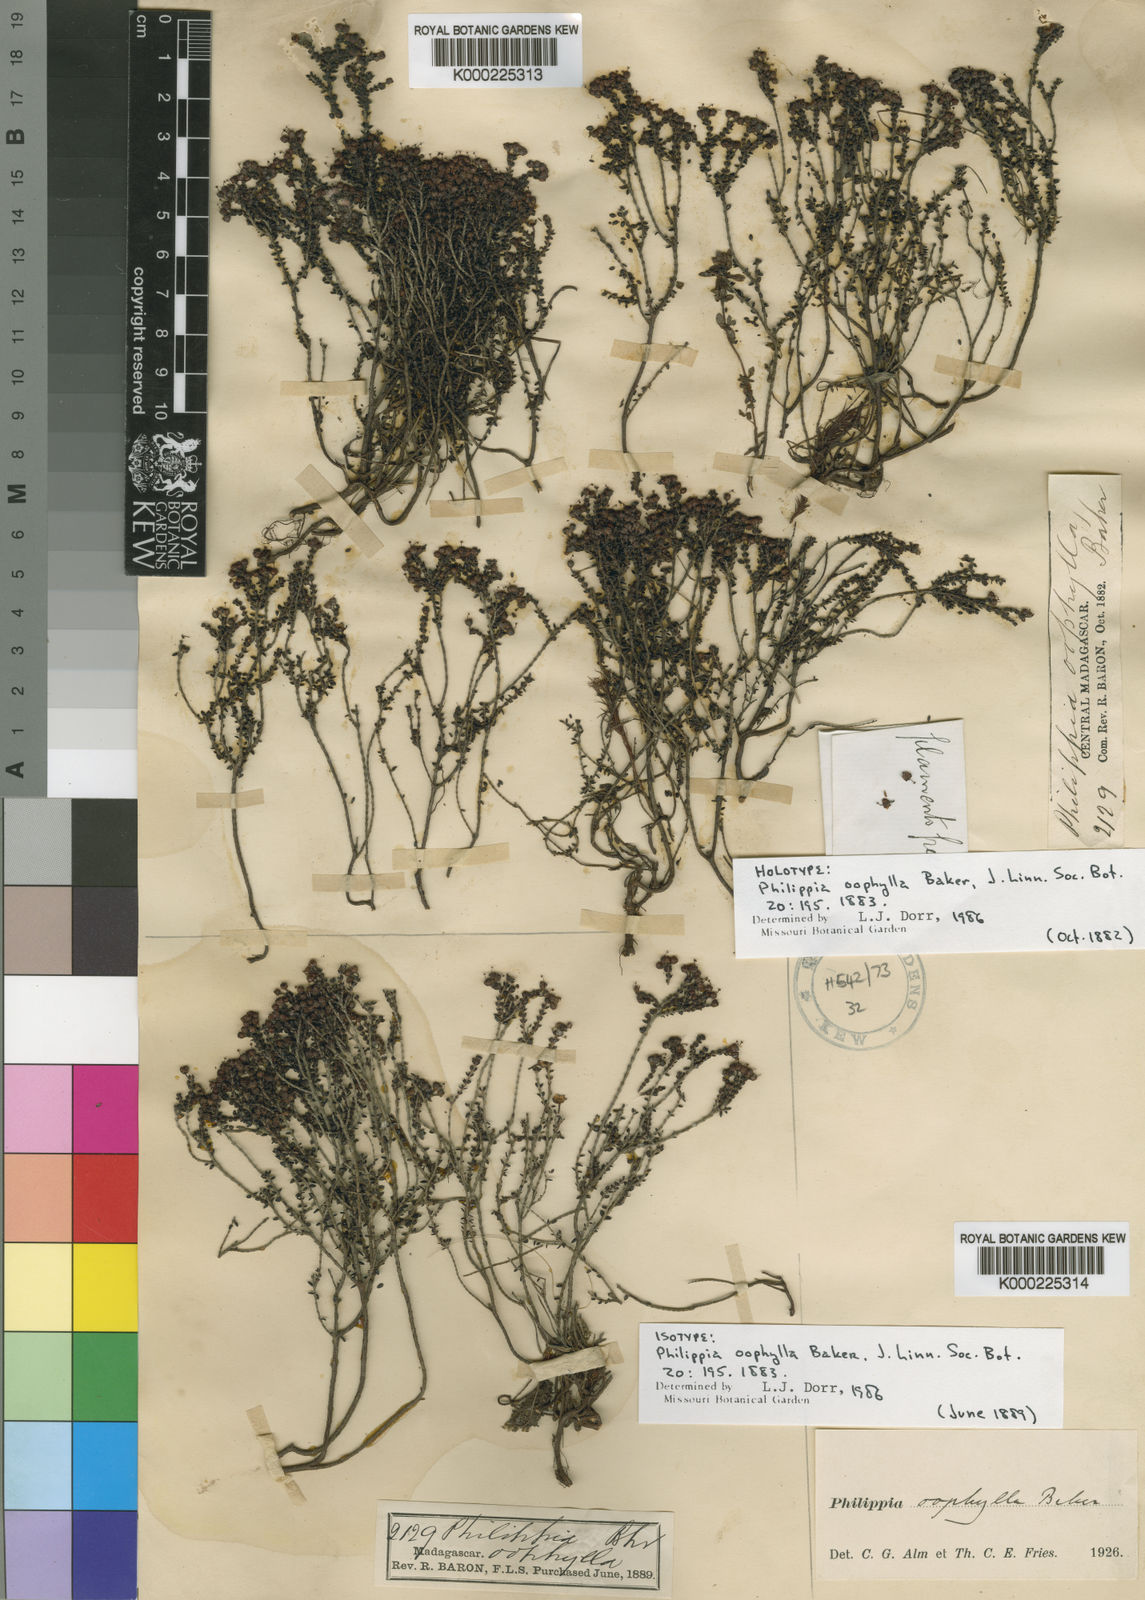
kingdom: Plantae
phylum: Tracheophyta
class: Magnoliopsida
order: Ericales
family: Ericaceae
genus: Erica
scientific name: Erica minutifolia
